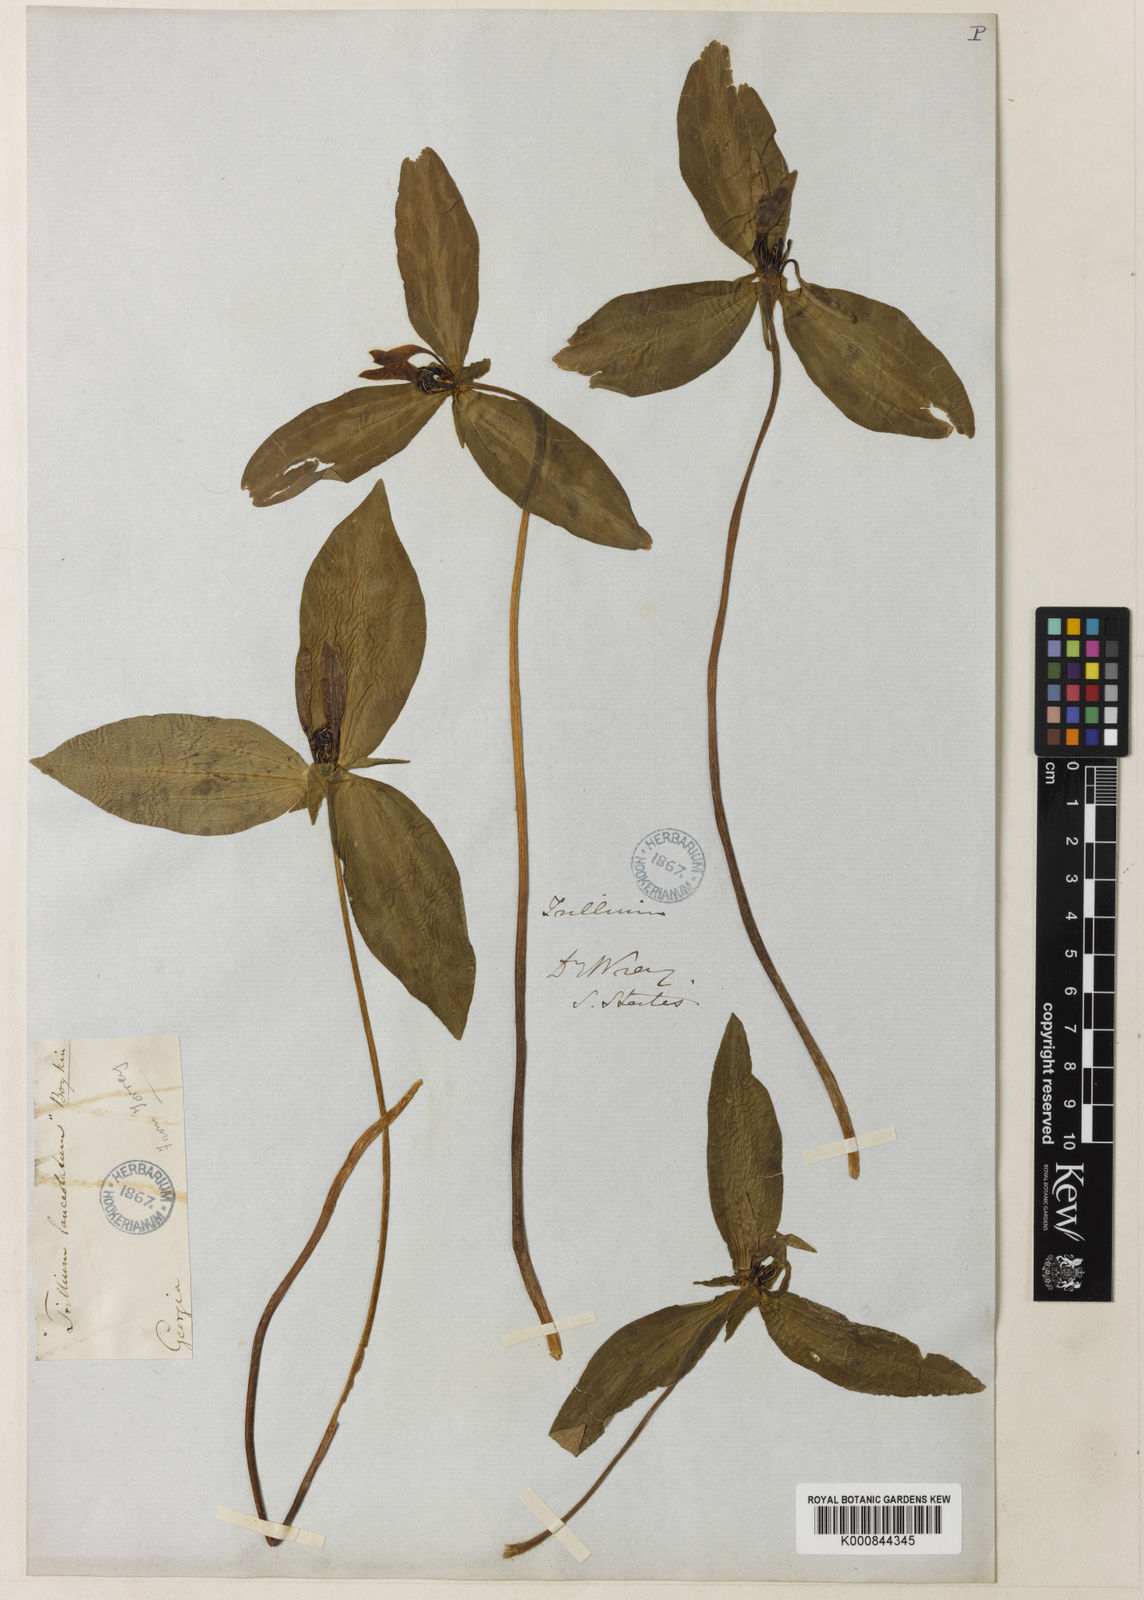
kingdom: Plantae
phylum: Tracheophyta
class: Liliopsida
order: Liliales
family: Melanthiaceae
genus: Trillium
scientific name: Trillium lancifolium
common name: Lance-leaved trillium
